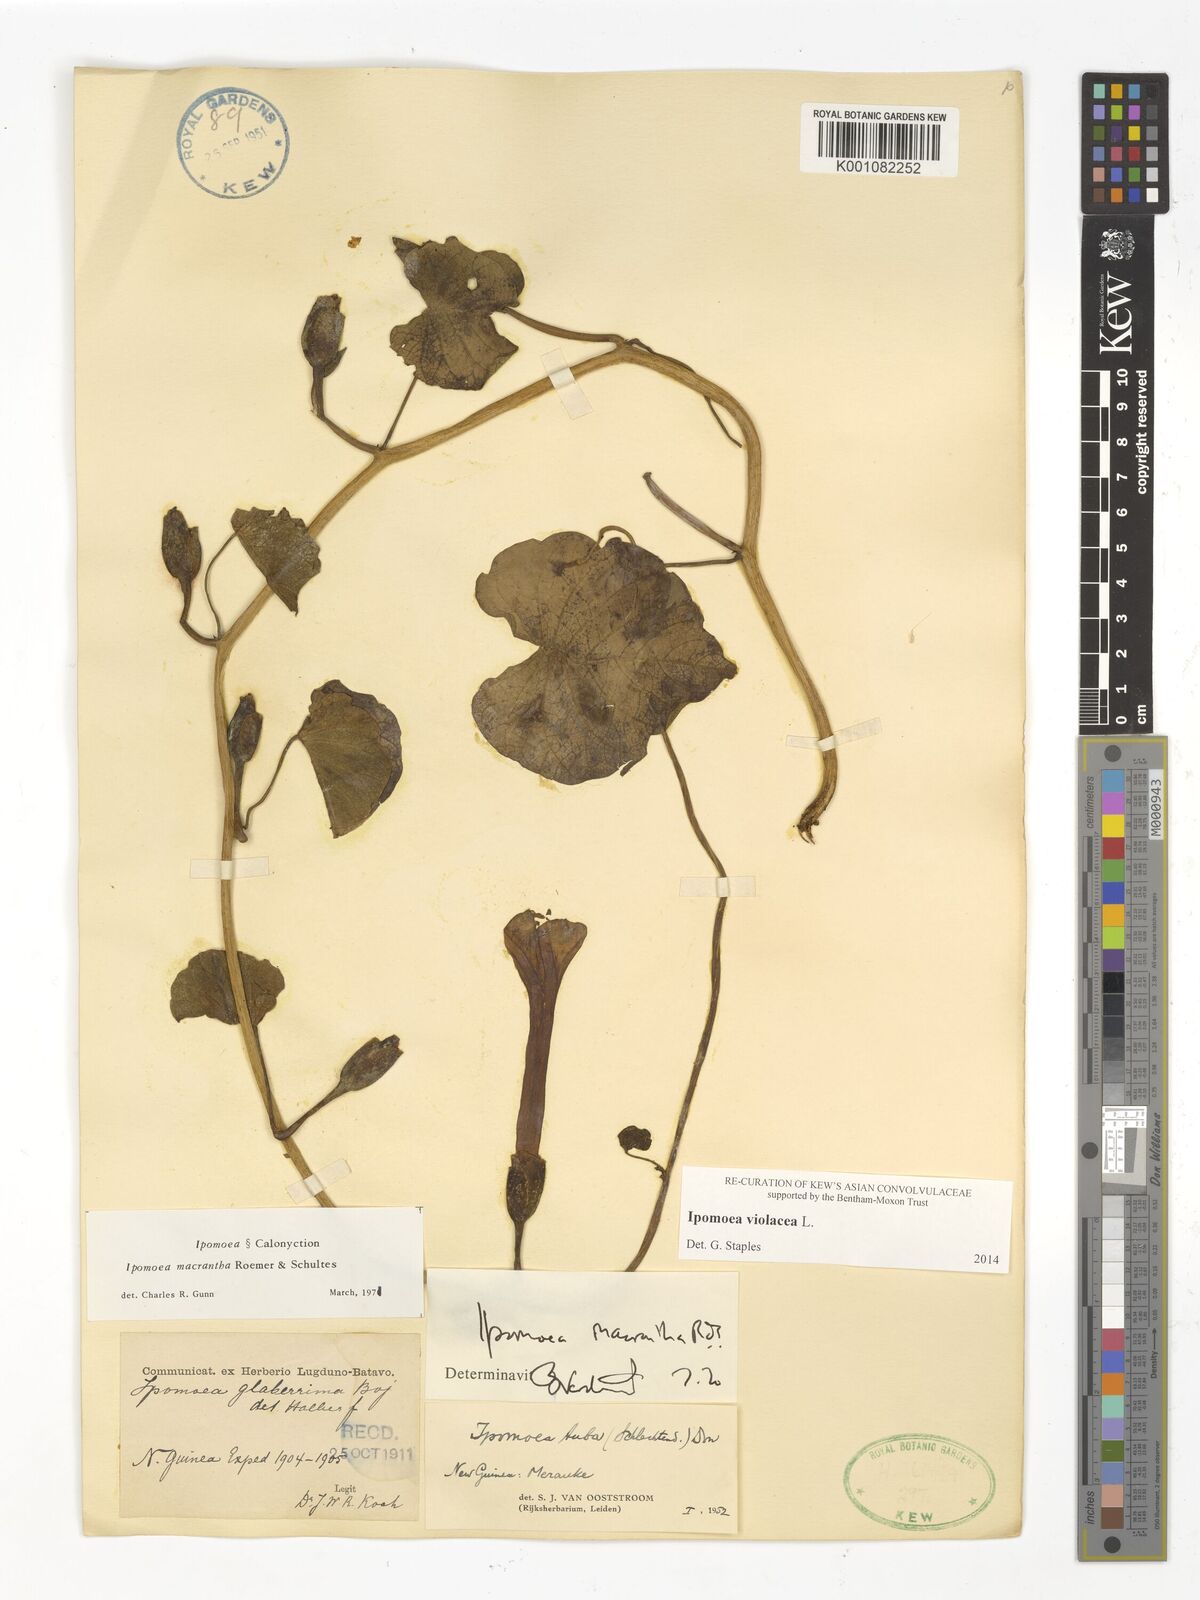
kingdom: Plantae
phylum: Tracheophyta
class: Magnoliopsida
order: Solanales
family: Convolvulaceae
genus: Ipomoea
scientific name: Ipomoea violacea
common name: Beach moonflower
